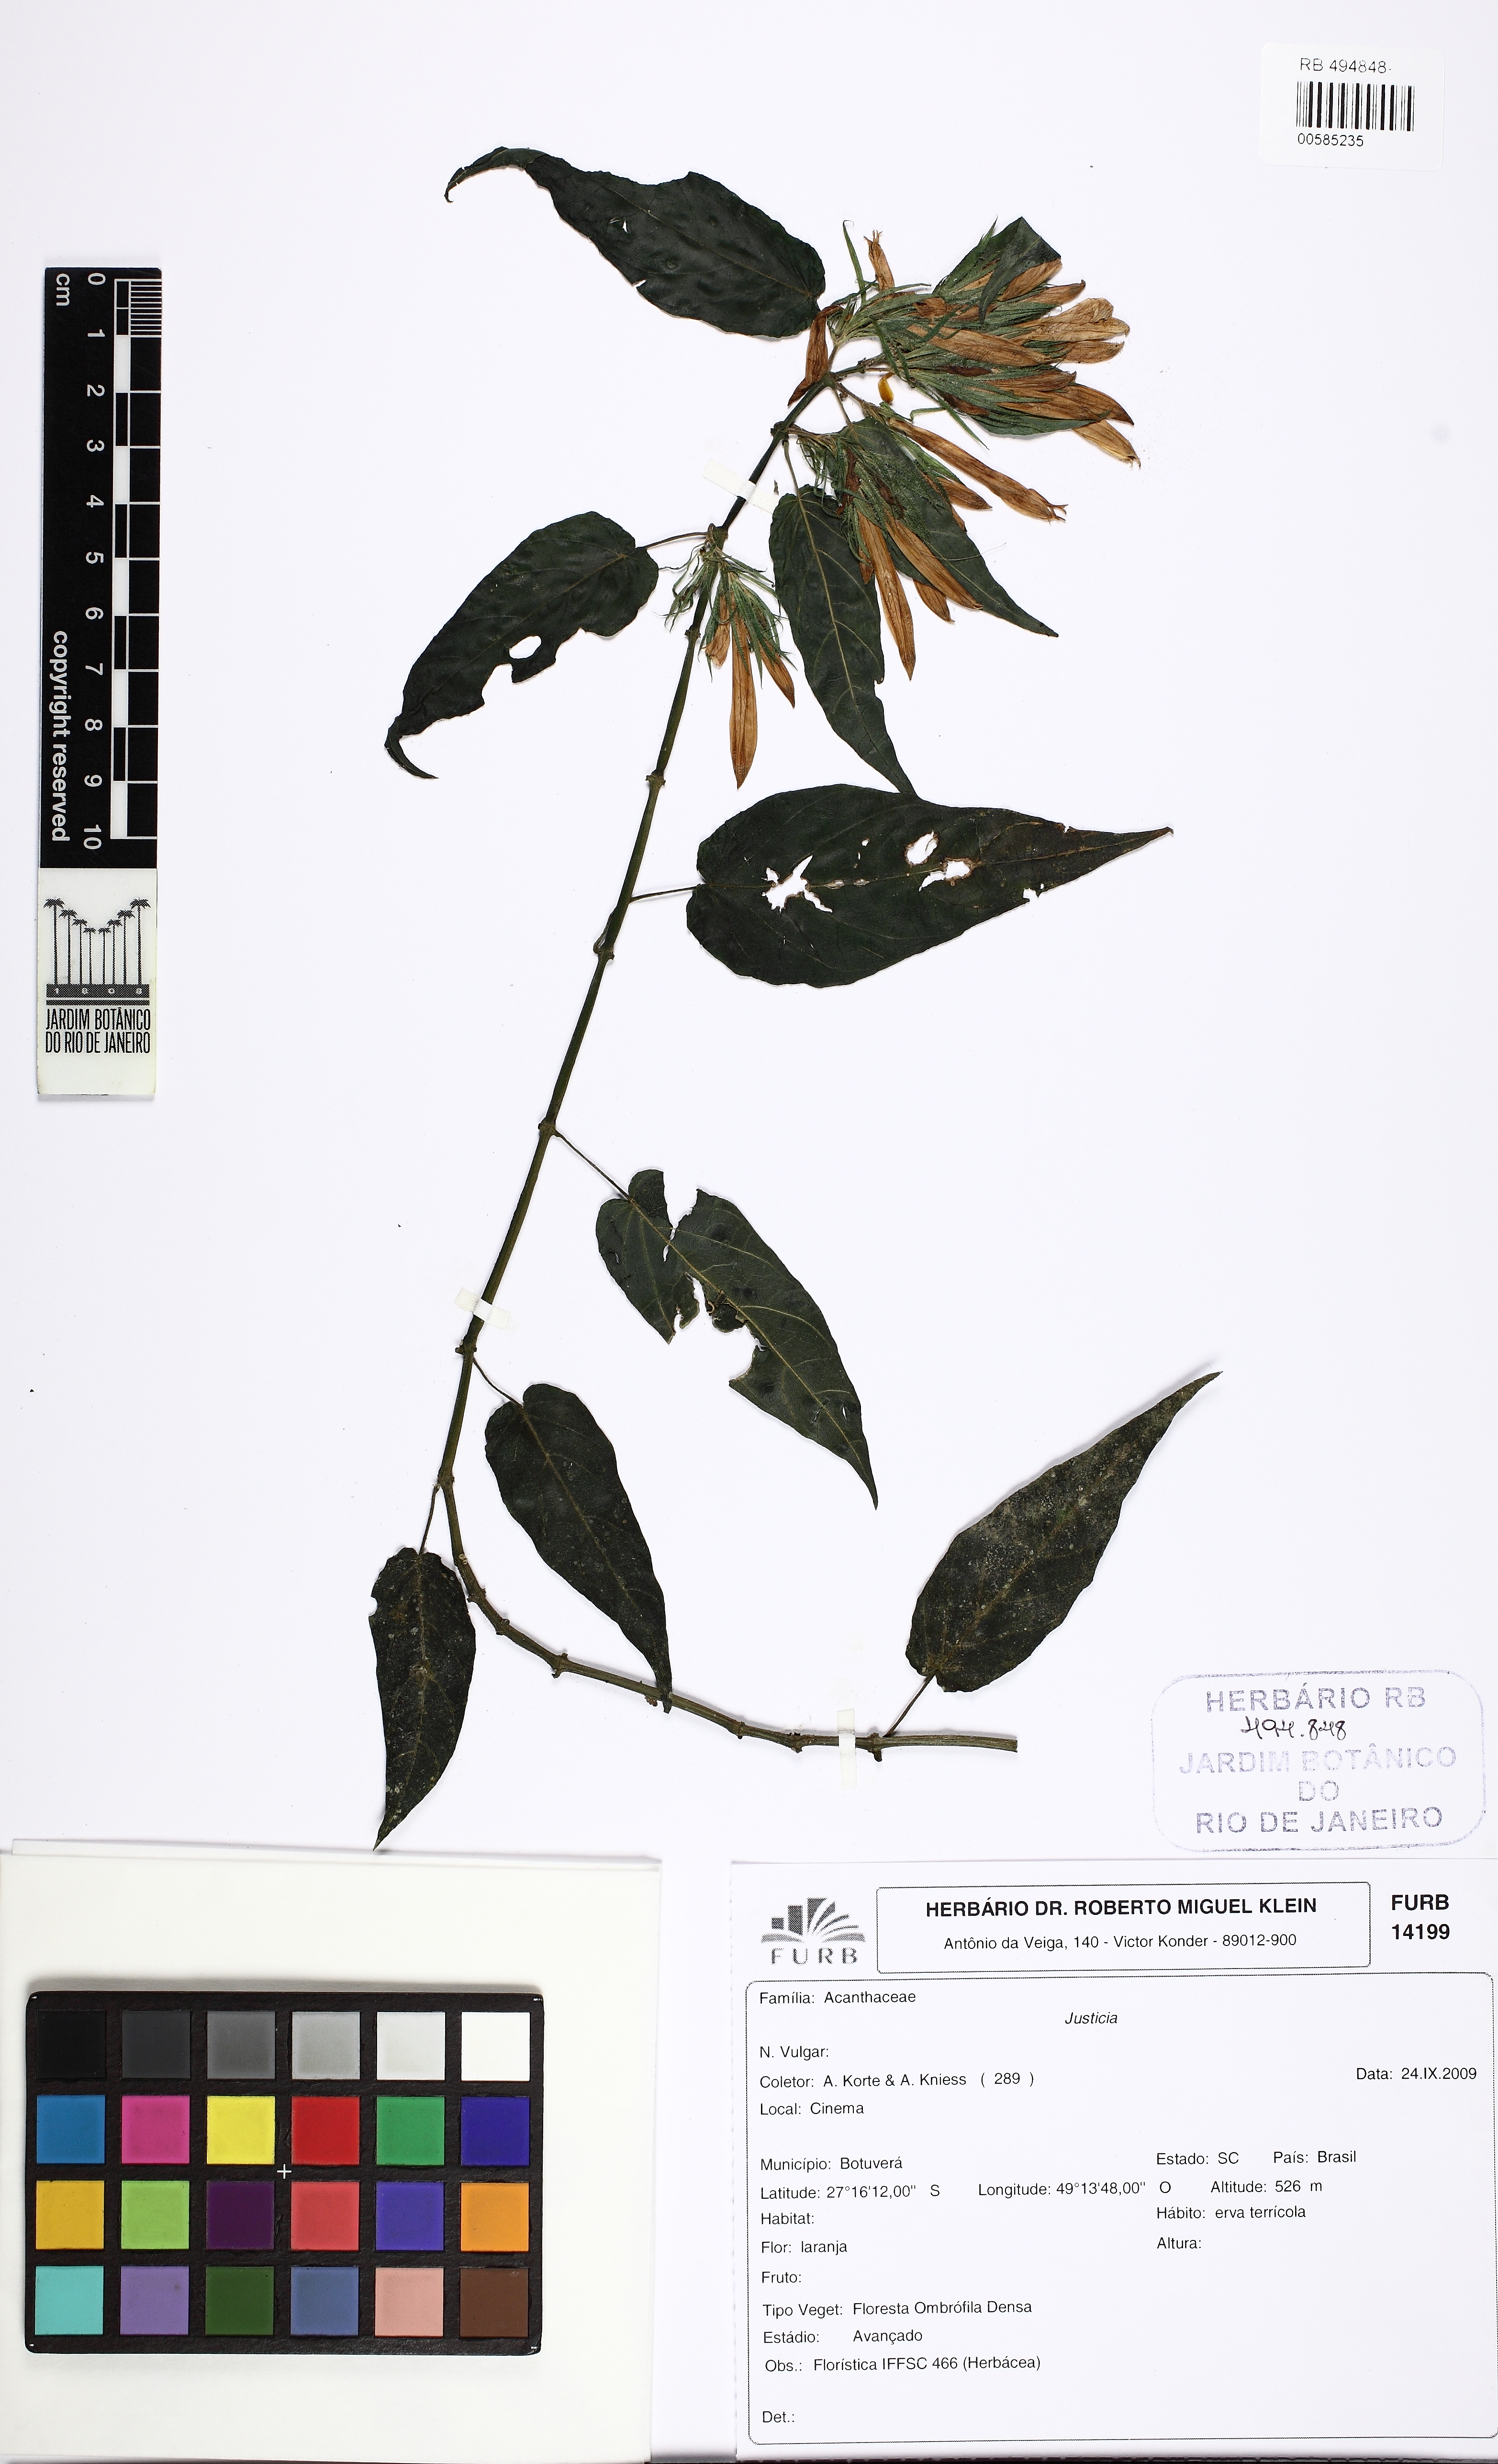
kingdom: Plantae
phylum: Tracheophyta
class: Magnoliopsida
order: Lamiales
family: Acanthaceae
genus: Justicia
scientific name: Justicia
